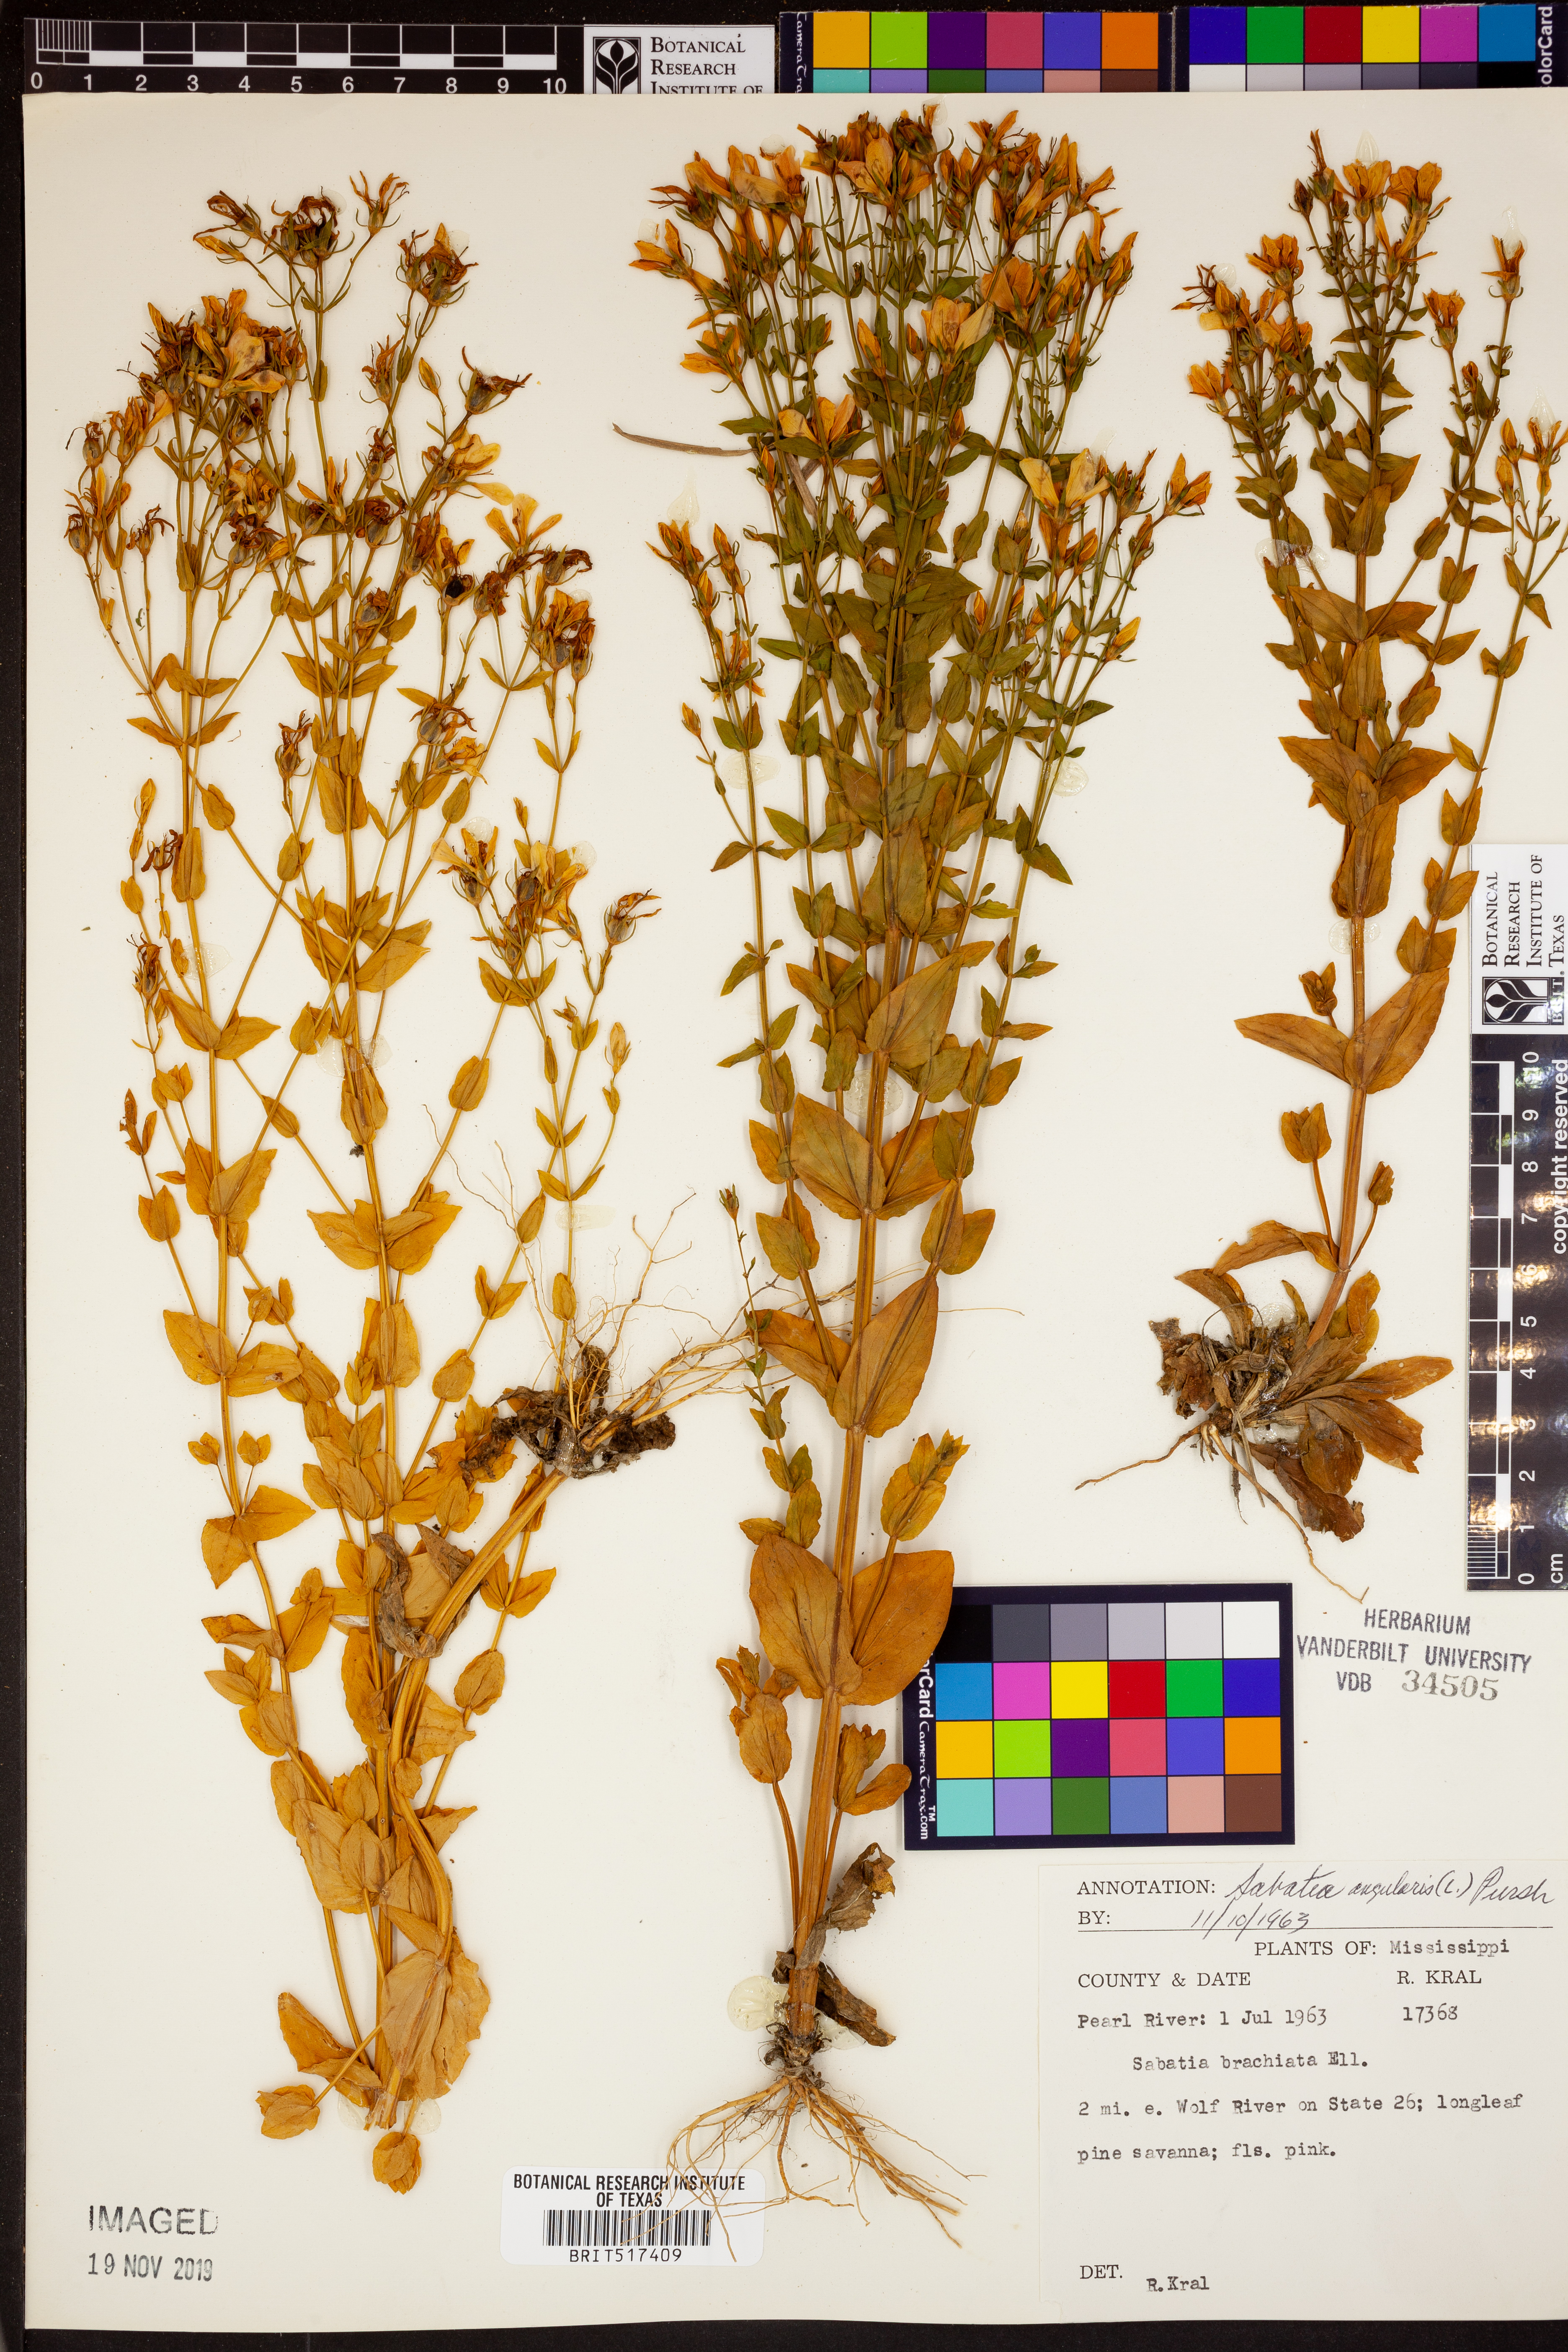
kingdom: Plantae
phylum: Tracheophyta
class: Magnoliopsida
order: Gentianales
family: Gentianaceae
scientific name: Gentianaceae
